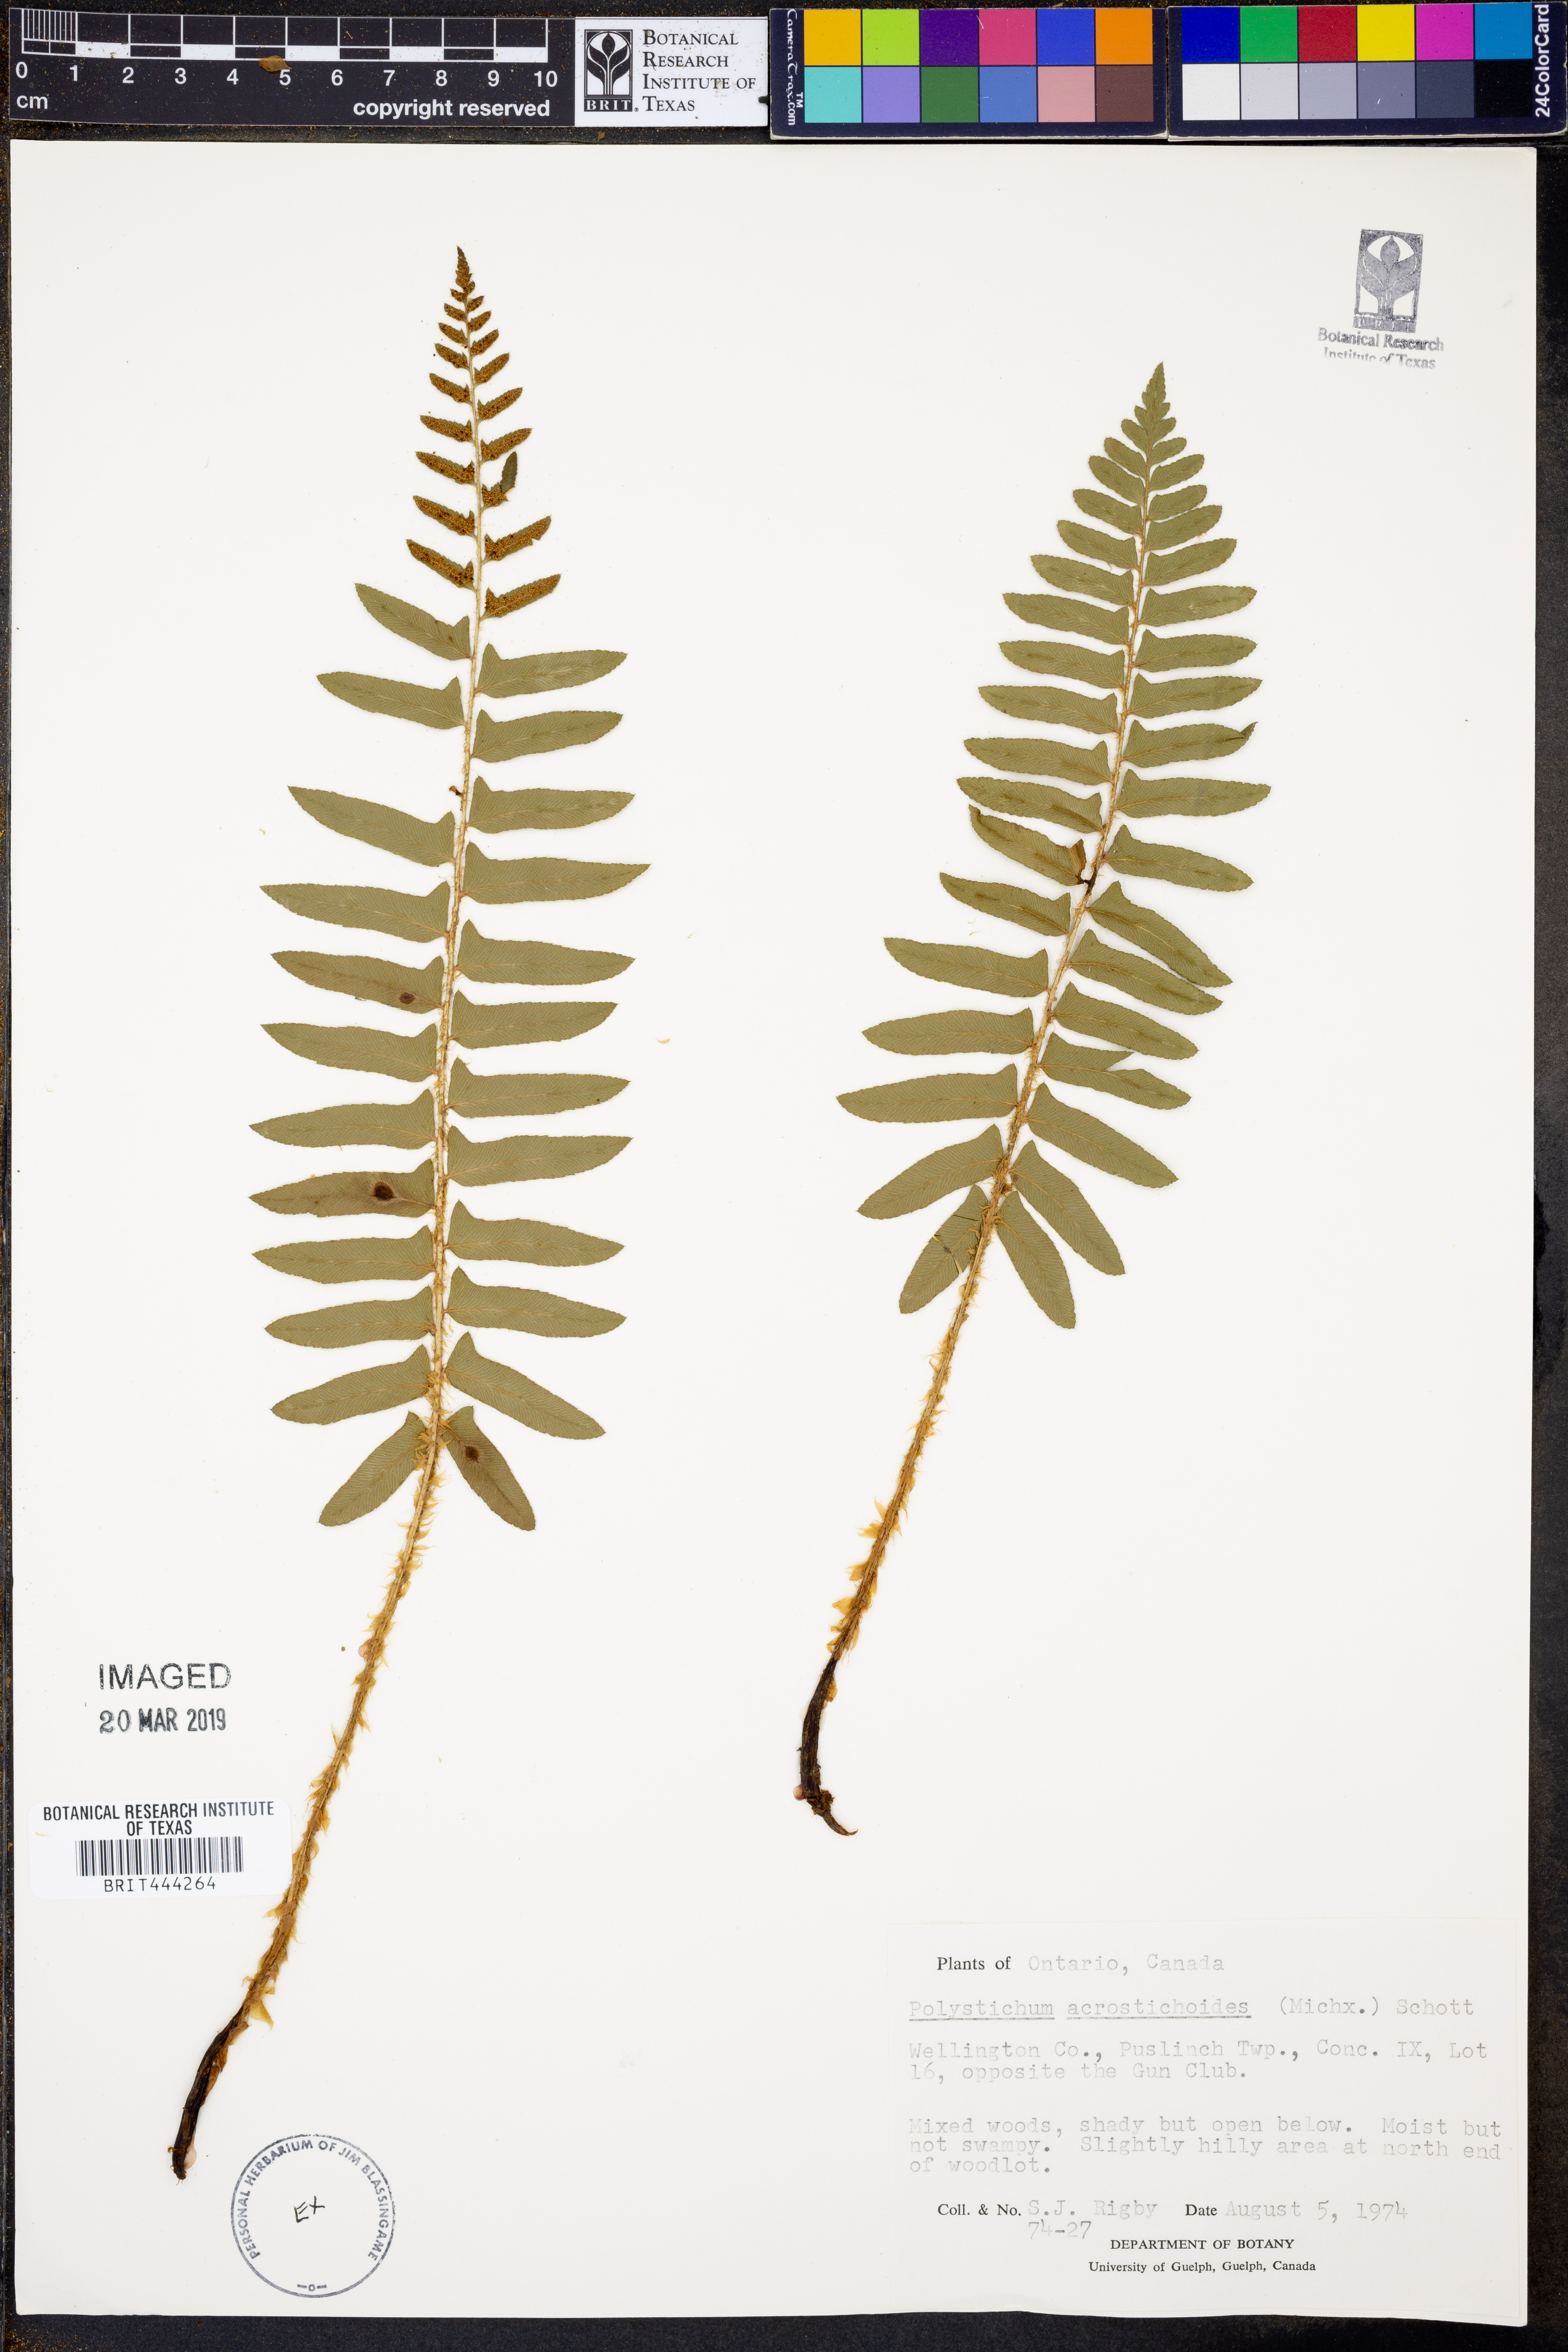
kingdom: Plantae
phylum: Tracheophyta
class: Polypodiopsida
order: Polypodiales
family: Dryopteridaceae
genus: Polystichum
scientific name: Polystichum acrostichoides
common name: Christmas fern
